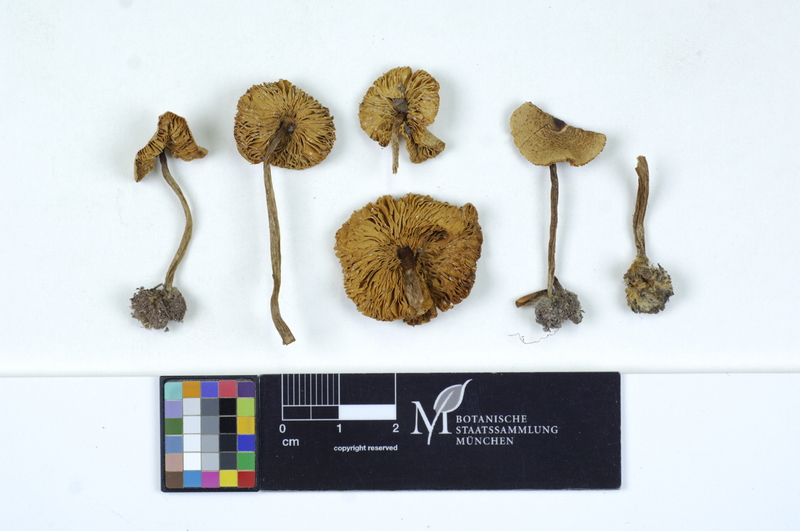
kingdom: Fungi
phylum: Basidiomycota
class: Agaricomycetes
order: Agaricales
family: Agaricaceae
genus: Lepiota
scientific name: Lepiota cristata
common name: Stinking dapperling
